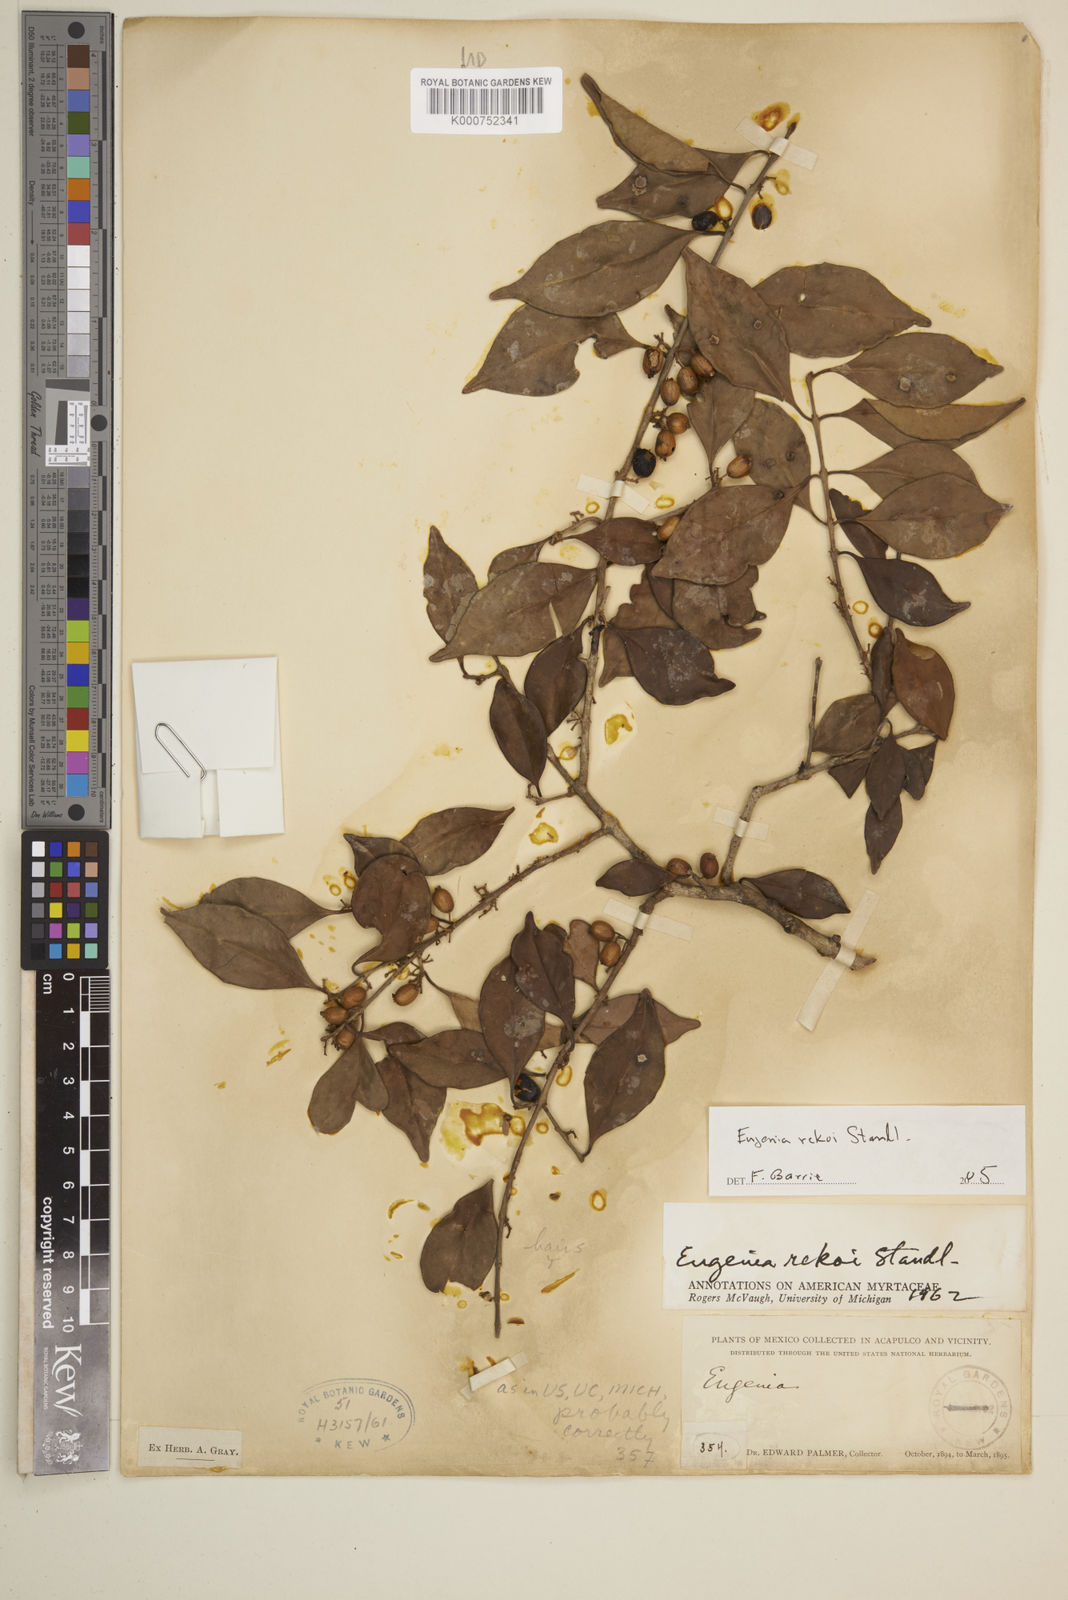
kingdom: Plantae
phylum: Tracheophyta
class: Magnoliopsida
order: Myrtales
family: Myrtaceae
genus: Eugenia
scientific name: Eugenia rekoi
